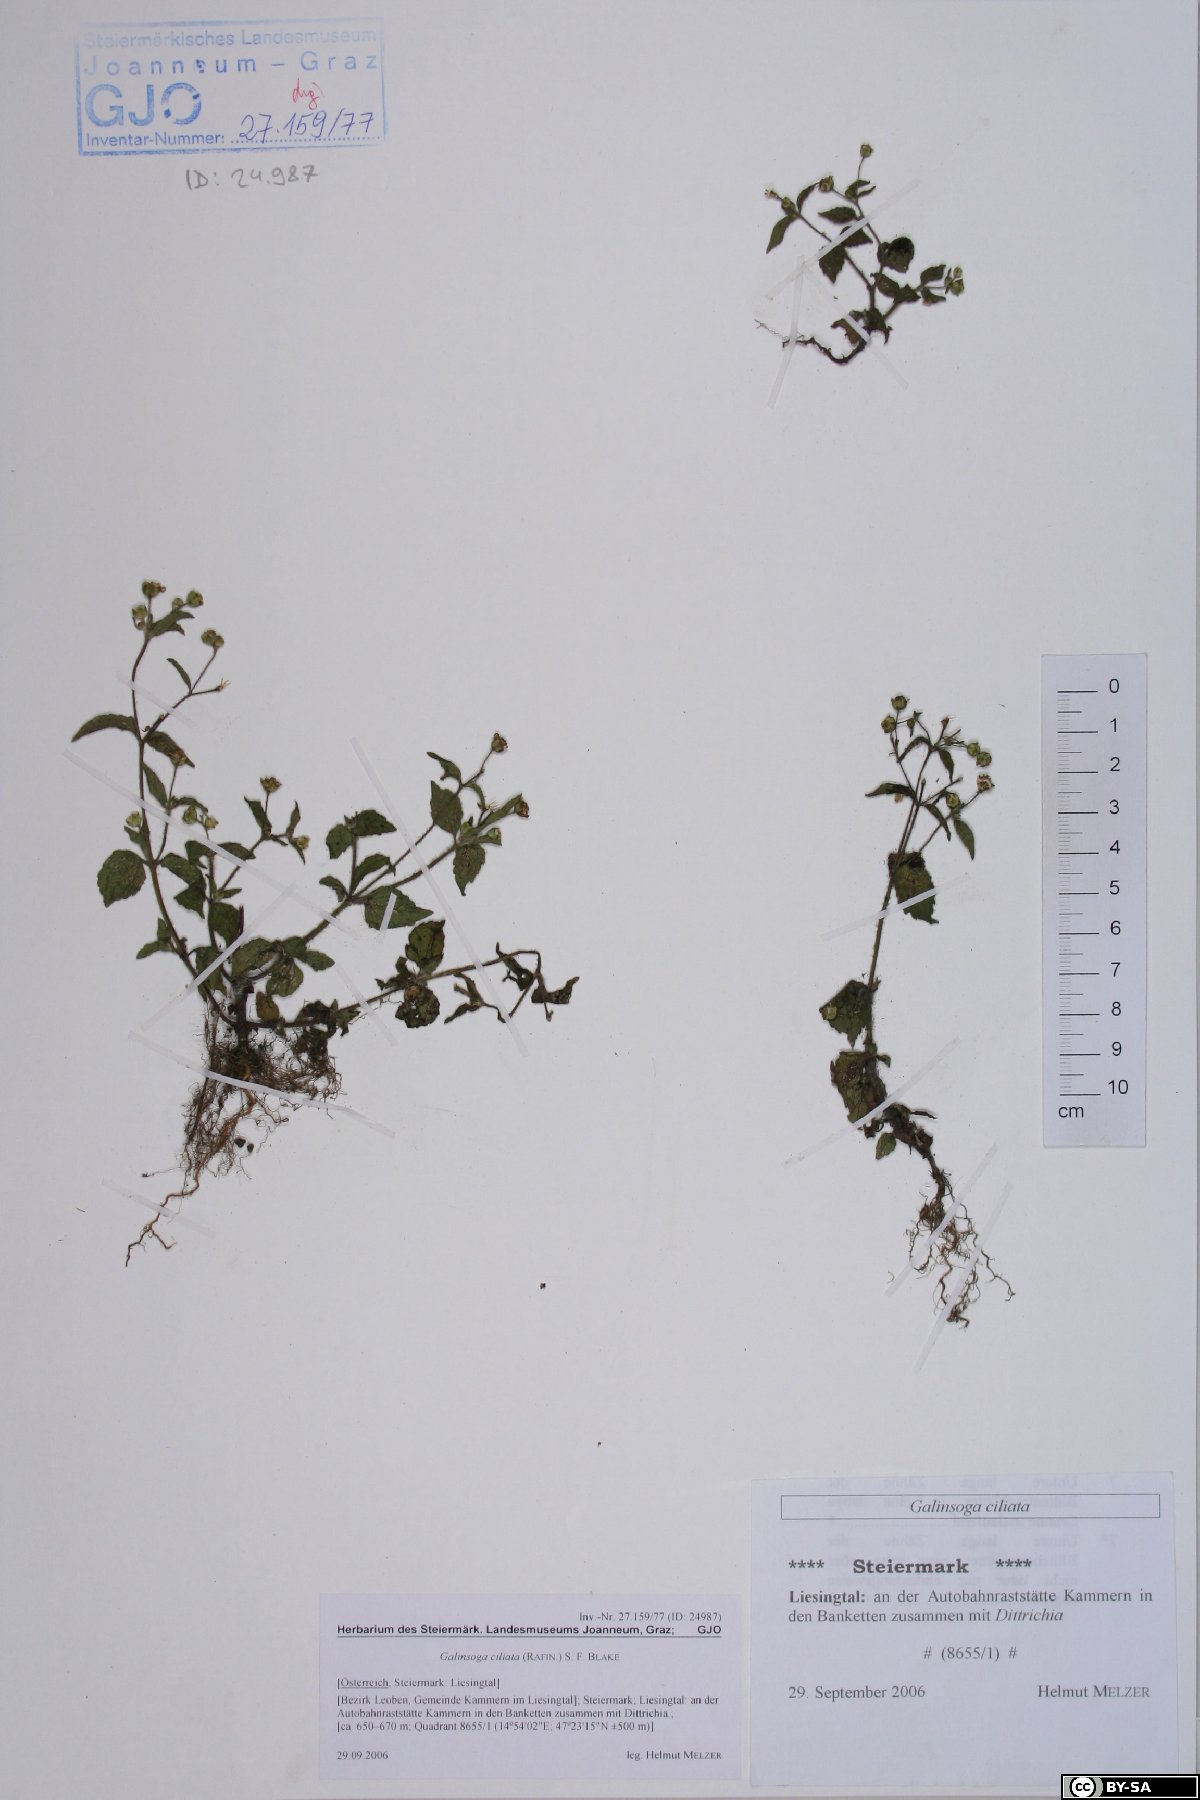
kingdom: Fungi
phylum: Basidiomycota
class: Agaricomycetes
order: Hymenochaetales
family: Schizoporaceae
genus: Schizopora
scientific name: Schizopora paradoxa
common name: Split porecrust
